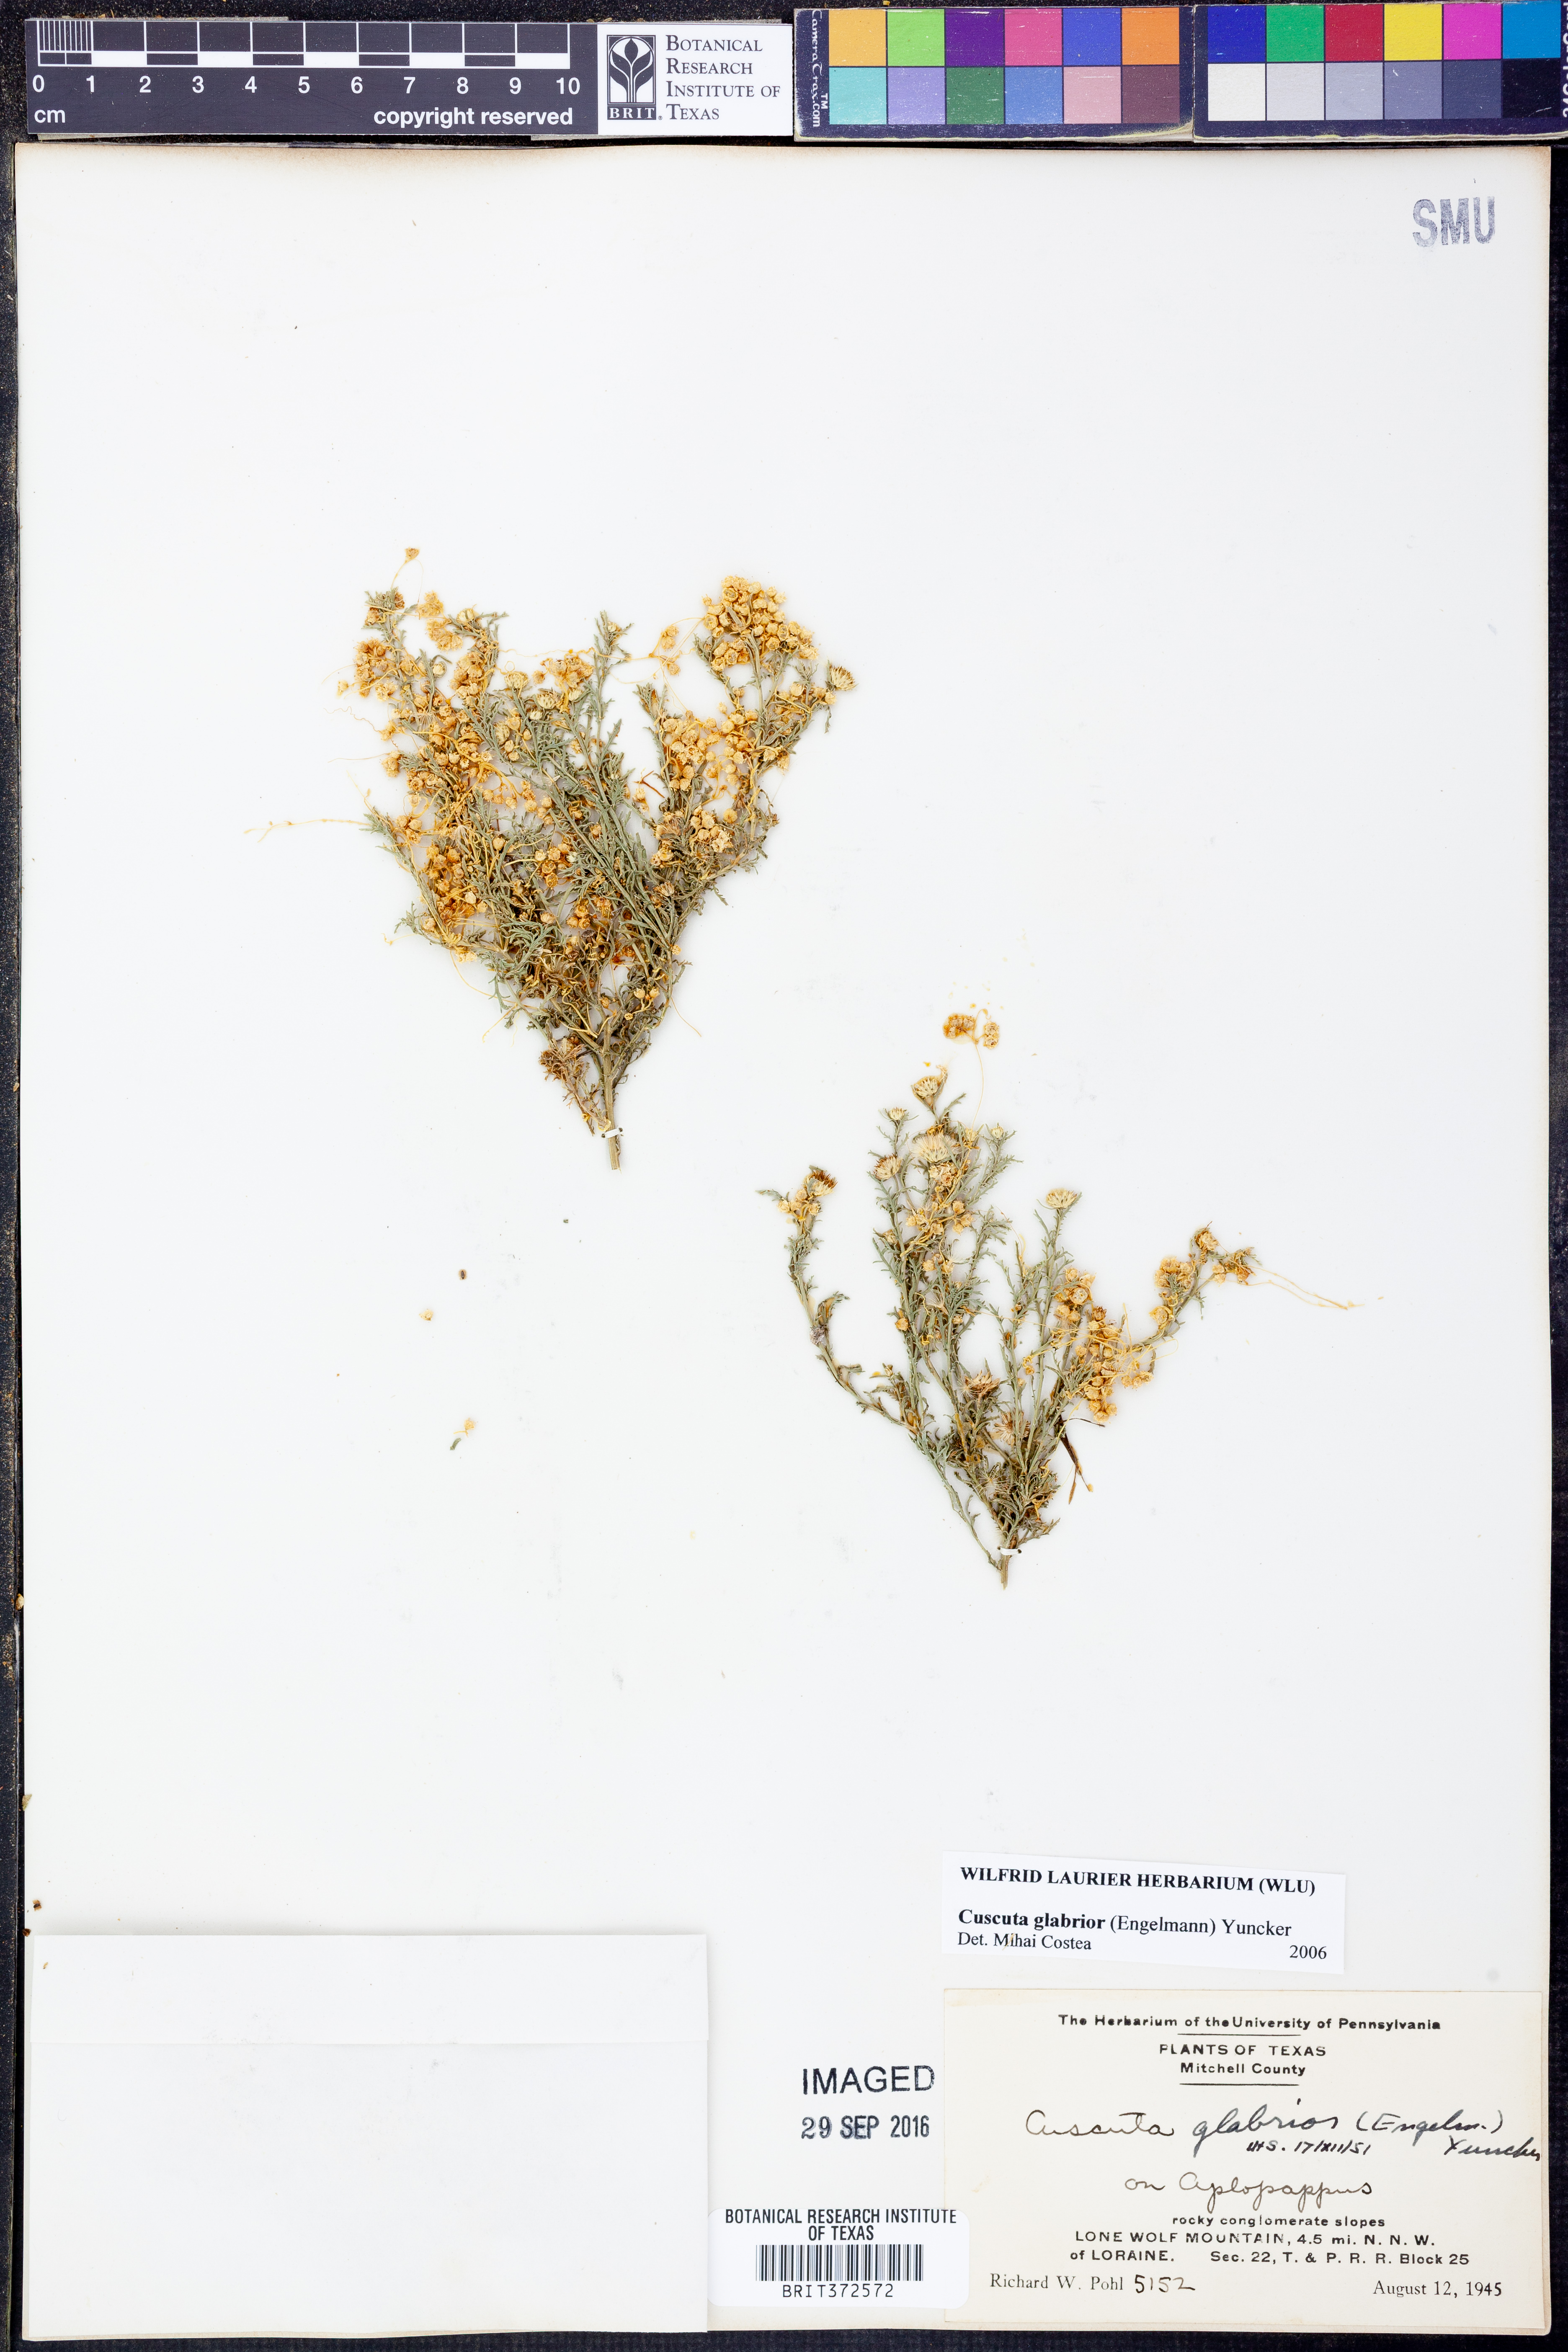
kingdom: Plantae
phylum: Tracheophyta
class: Magnoliopsida
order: Solanales
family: Convolvulaceae
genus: Cuscuta
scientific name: Cuscuta glabrior
